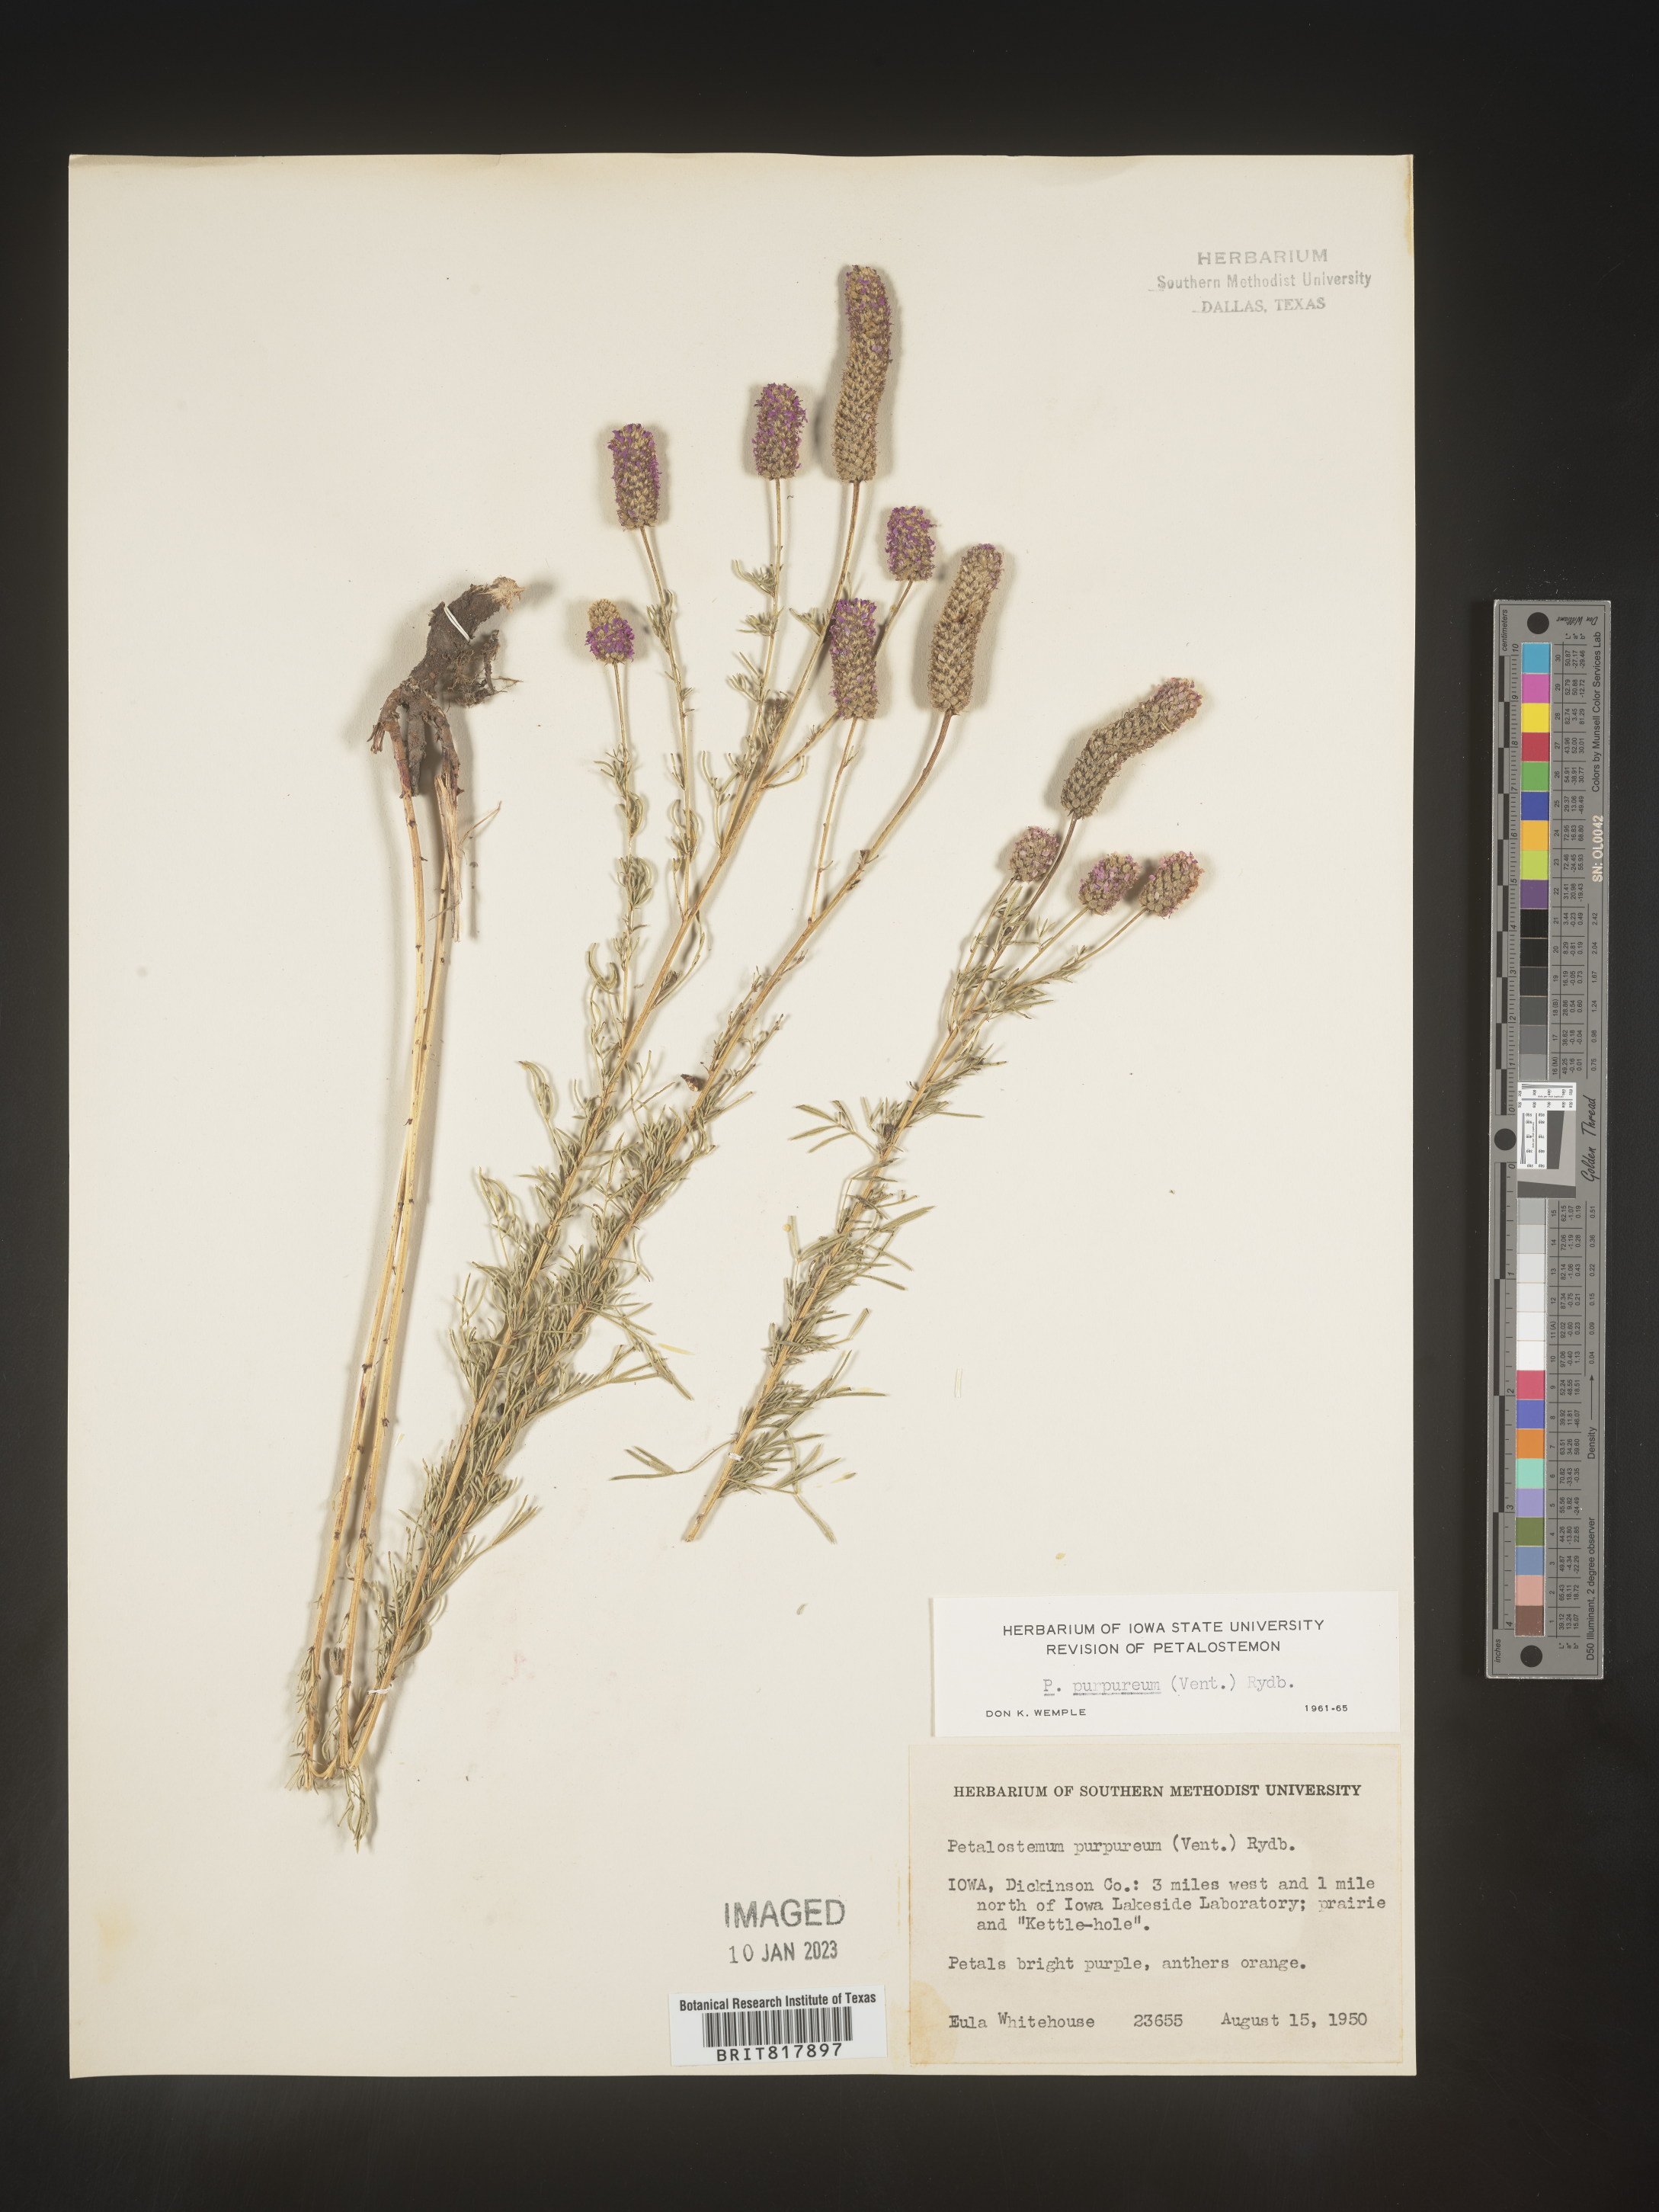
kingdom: Plantae
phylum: Tracheophyta
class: Magnoliopsida
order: Fabales
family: Fabaceae
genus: Dalea
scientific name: Dalea purpurea
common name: Purple prairie-clover
